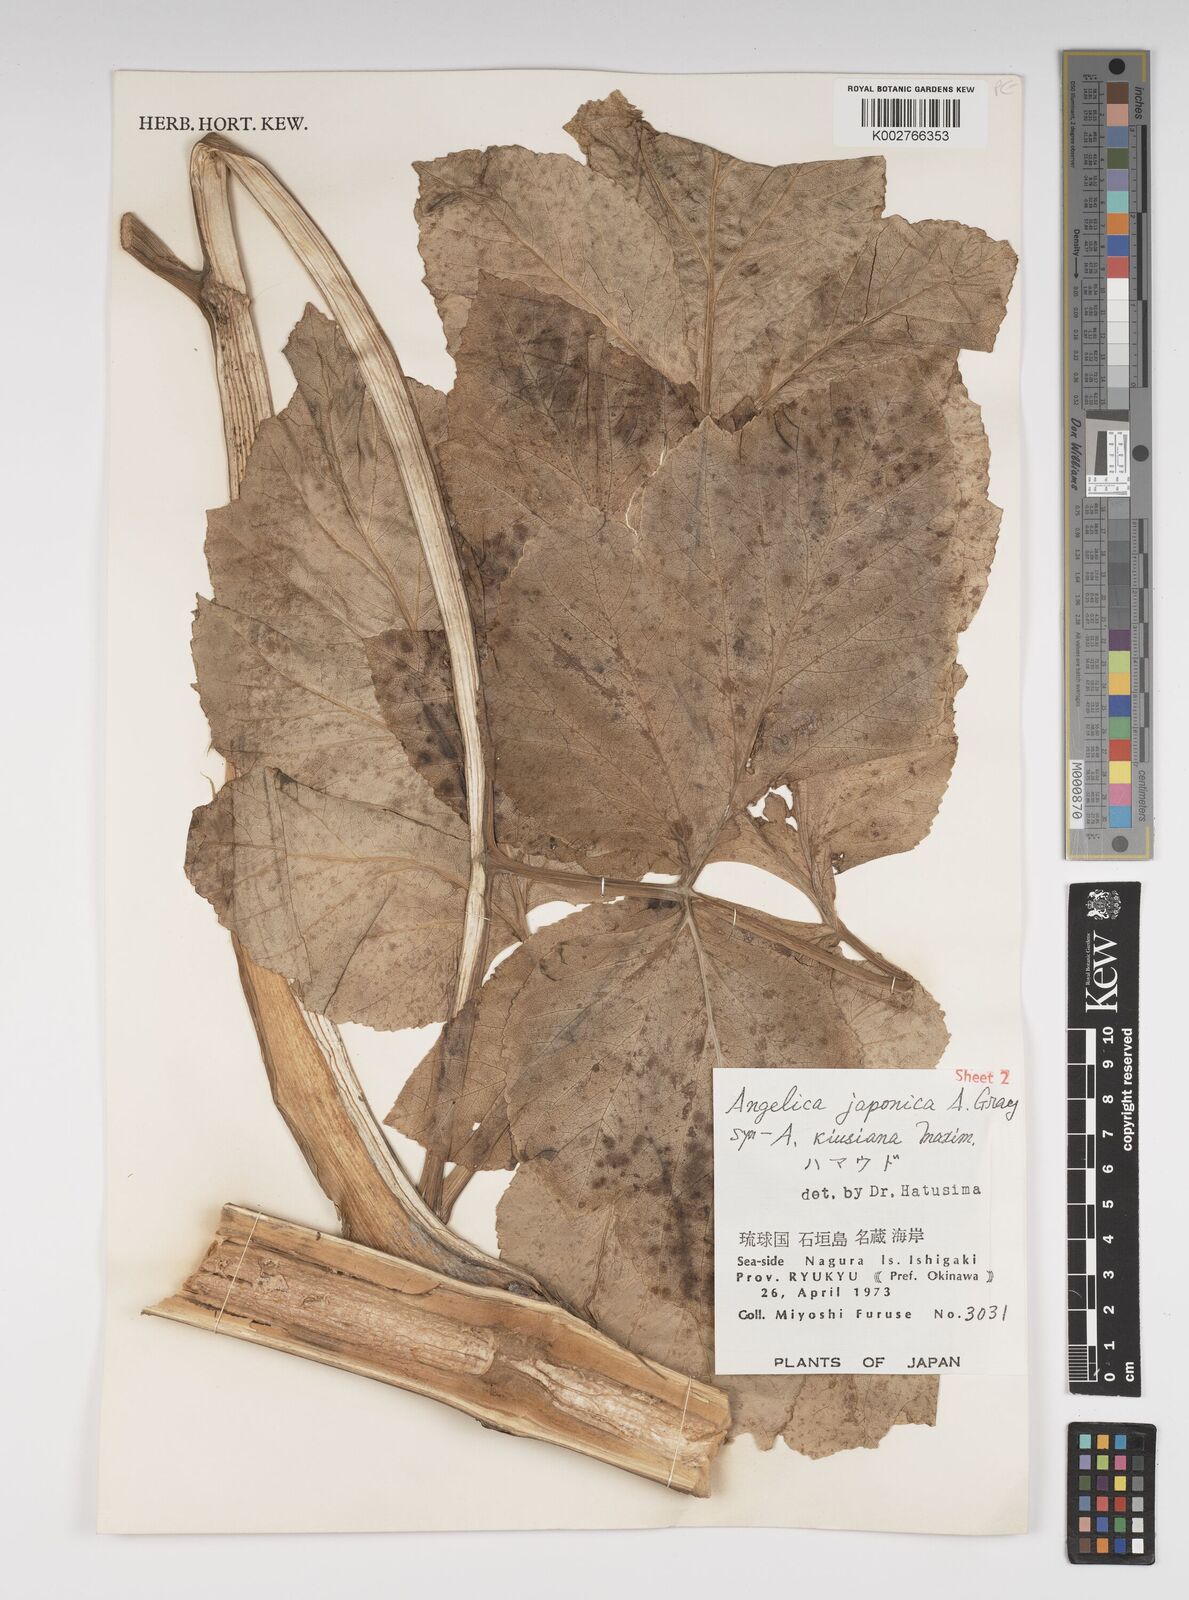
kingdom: Plantae
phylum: Tracheophyta
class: Magnoliopsida
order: Apiales
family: Apiaceae
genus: Angelica
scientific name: Angelica
